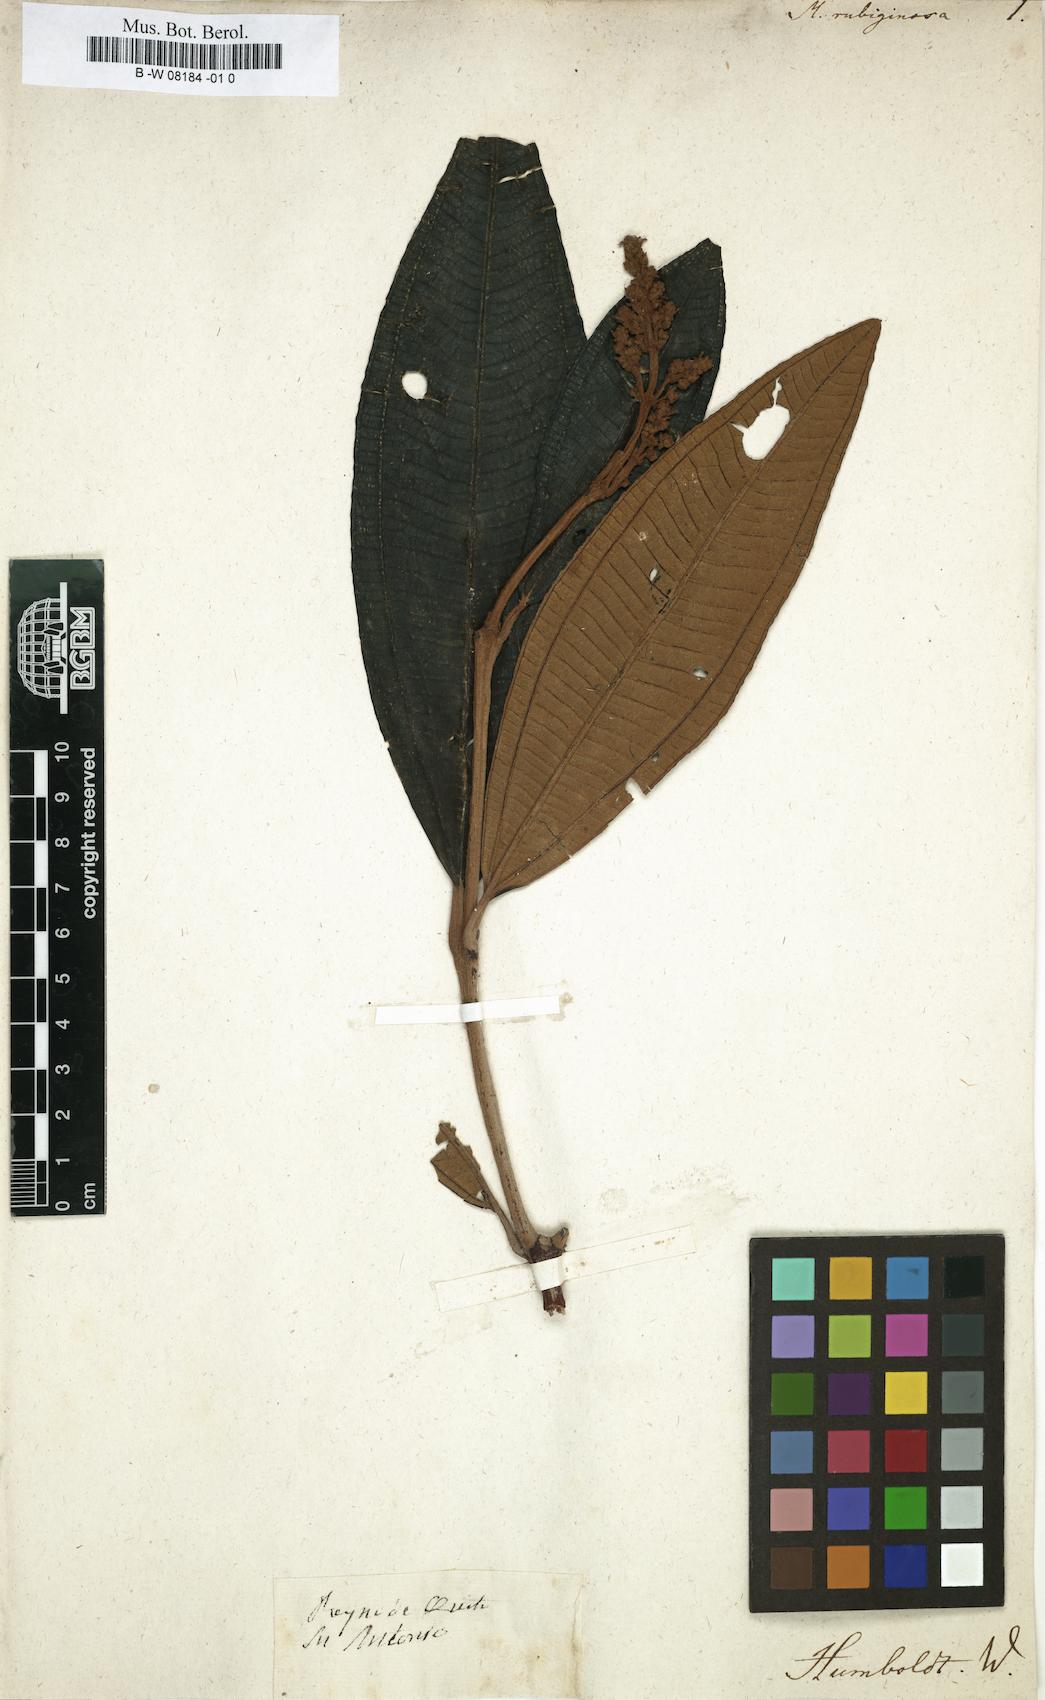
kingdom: Plantae
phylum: Tracheophyta
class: Magnoliopsida
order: Myrtales
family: Melastomataceae
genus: Melastoma
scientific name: Melastoma rubiginosum
